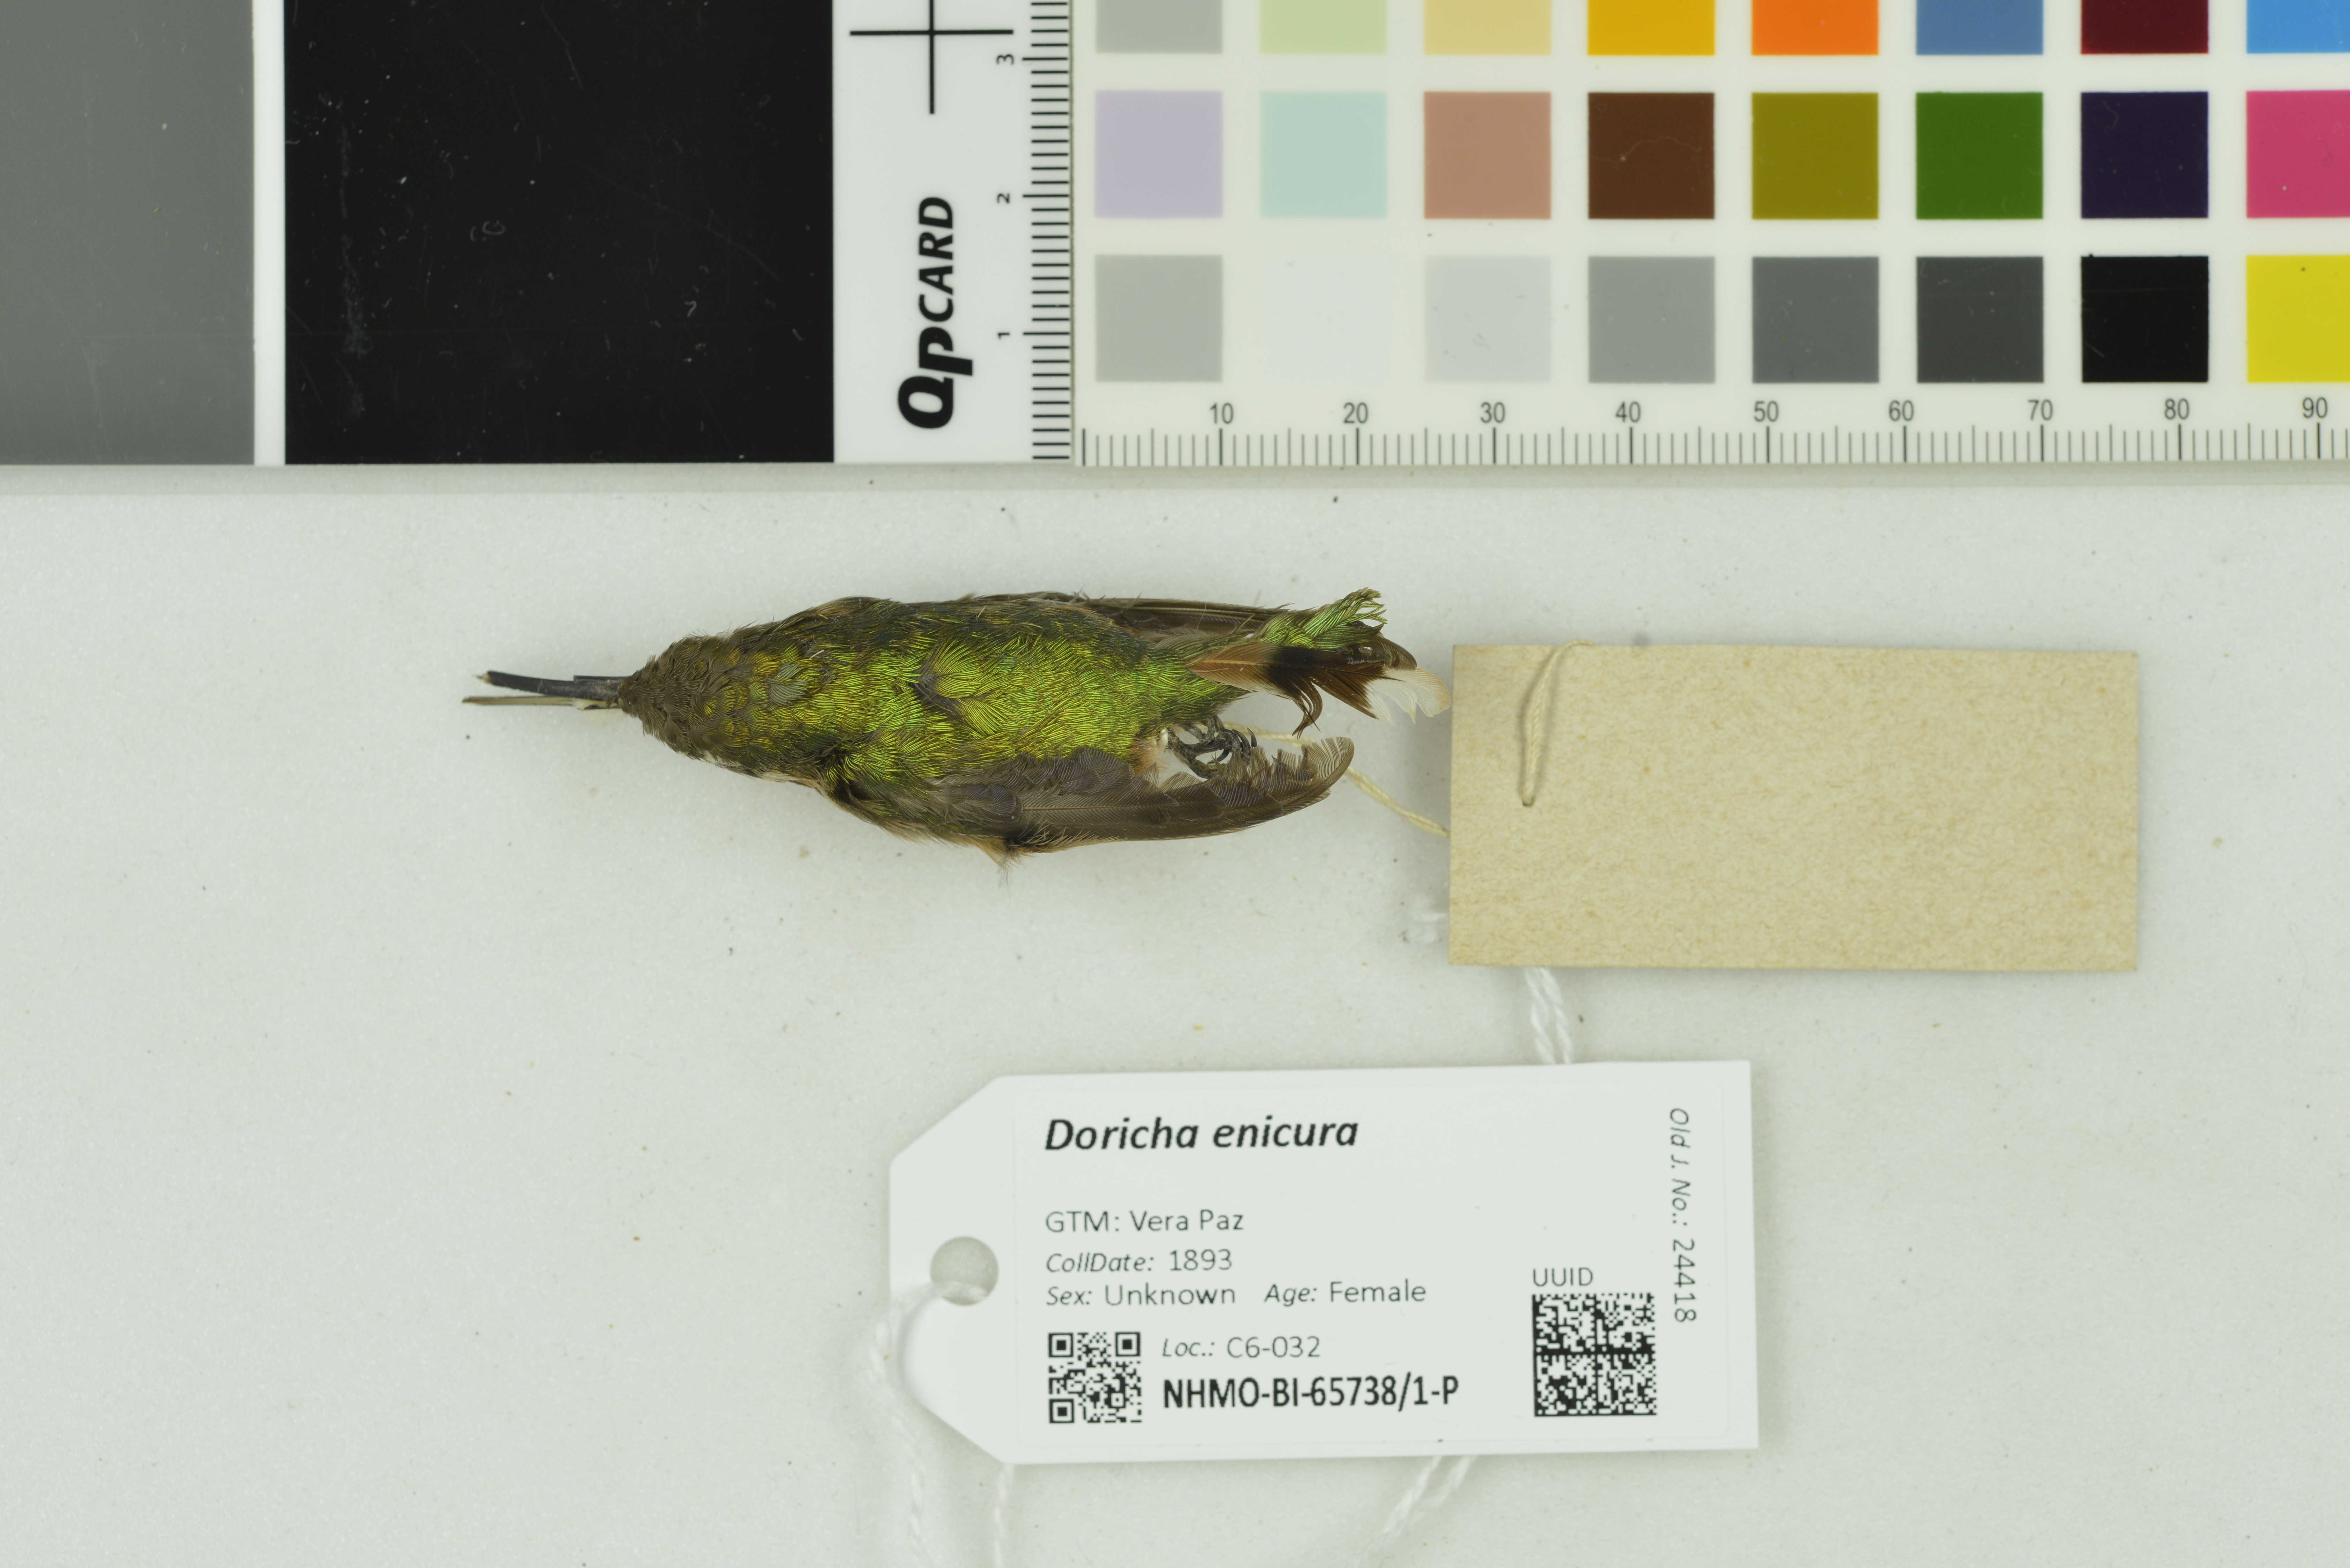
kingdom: Animalia
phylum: Chordata
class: Aves
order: Apodiformes
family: Trochilidae
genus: Doricha
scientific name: Doricha enicura
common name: Slender sheartail
